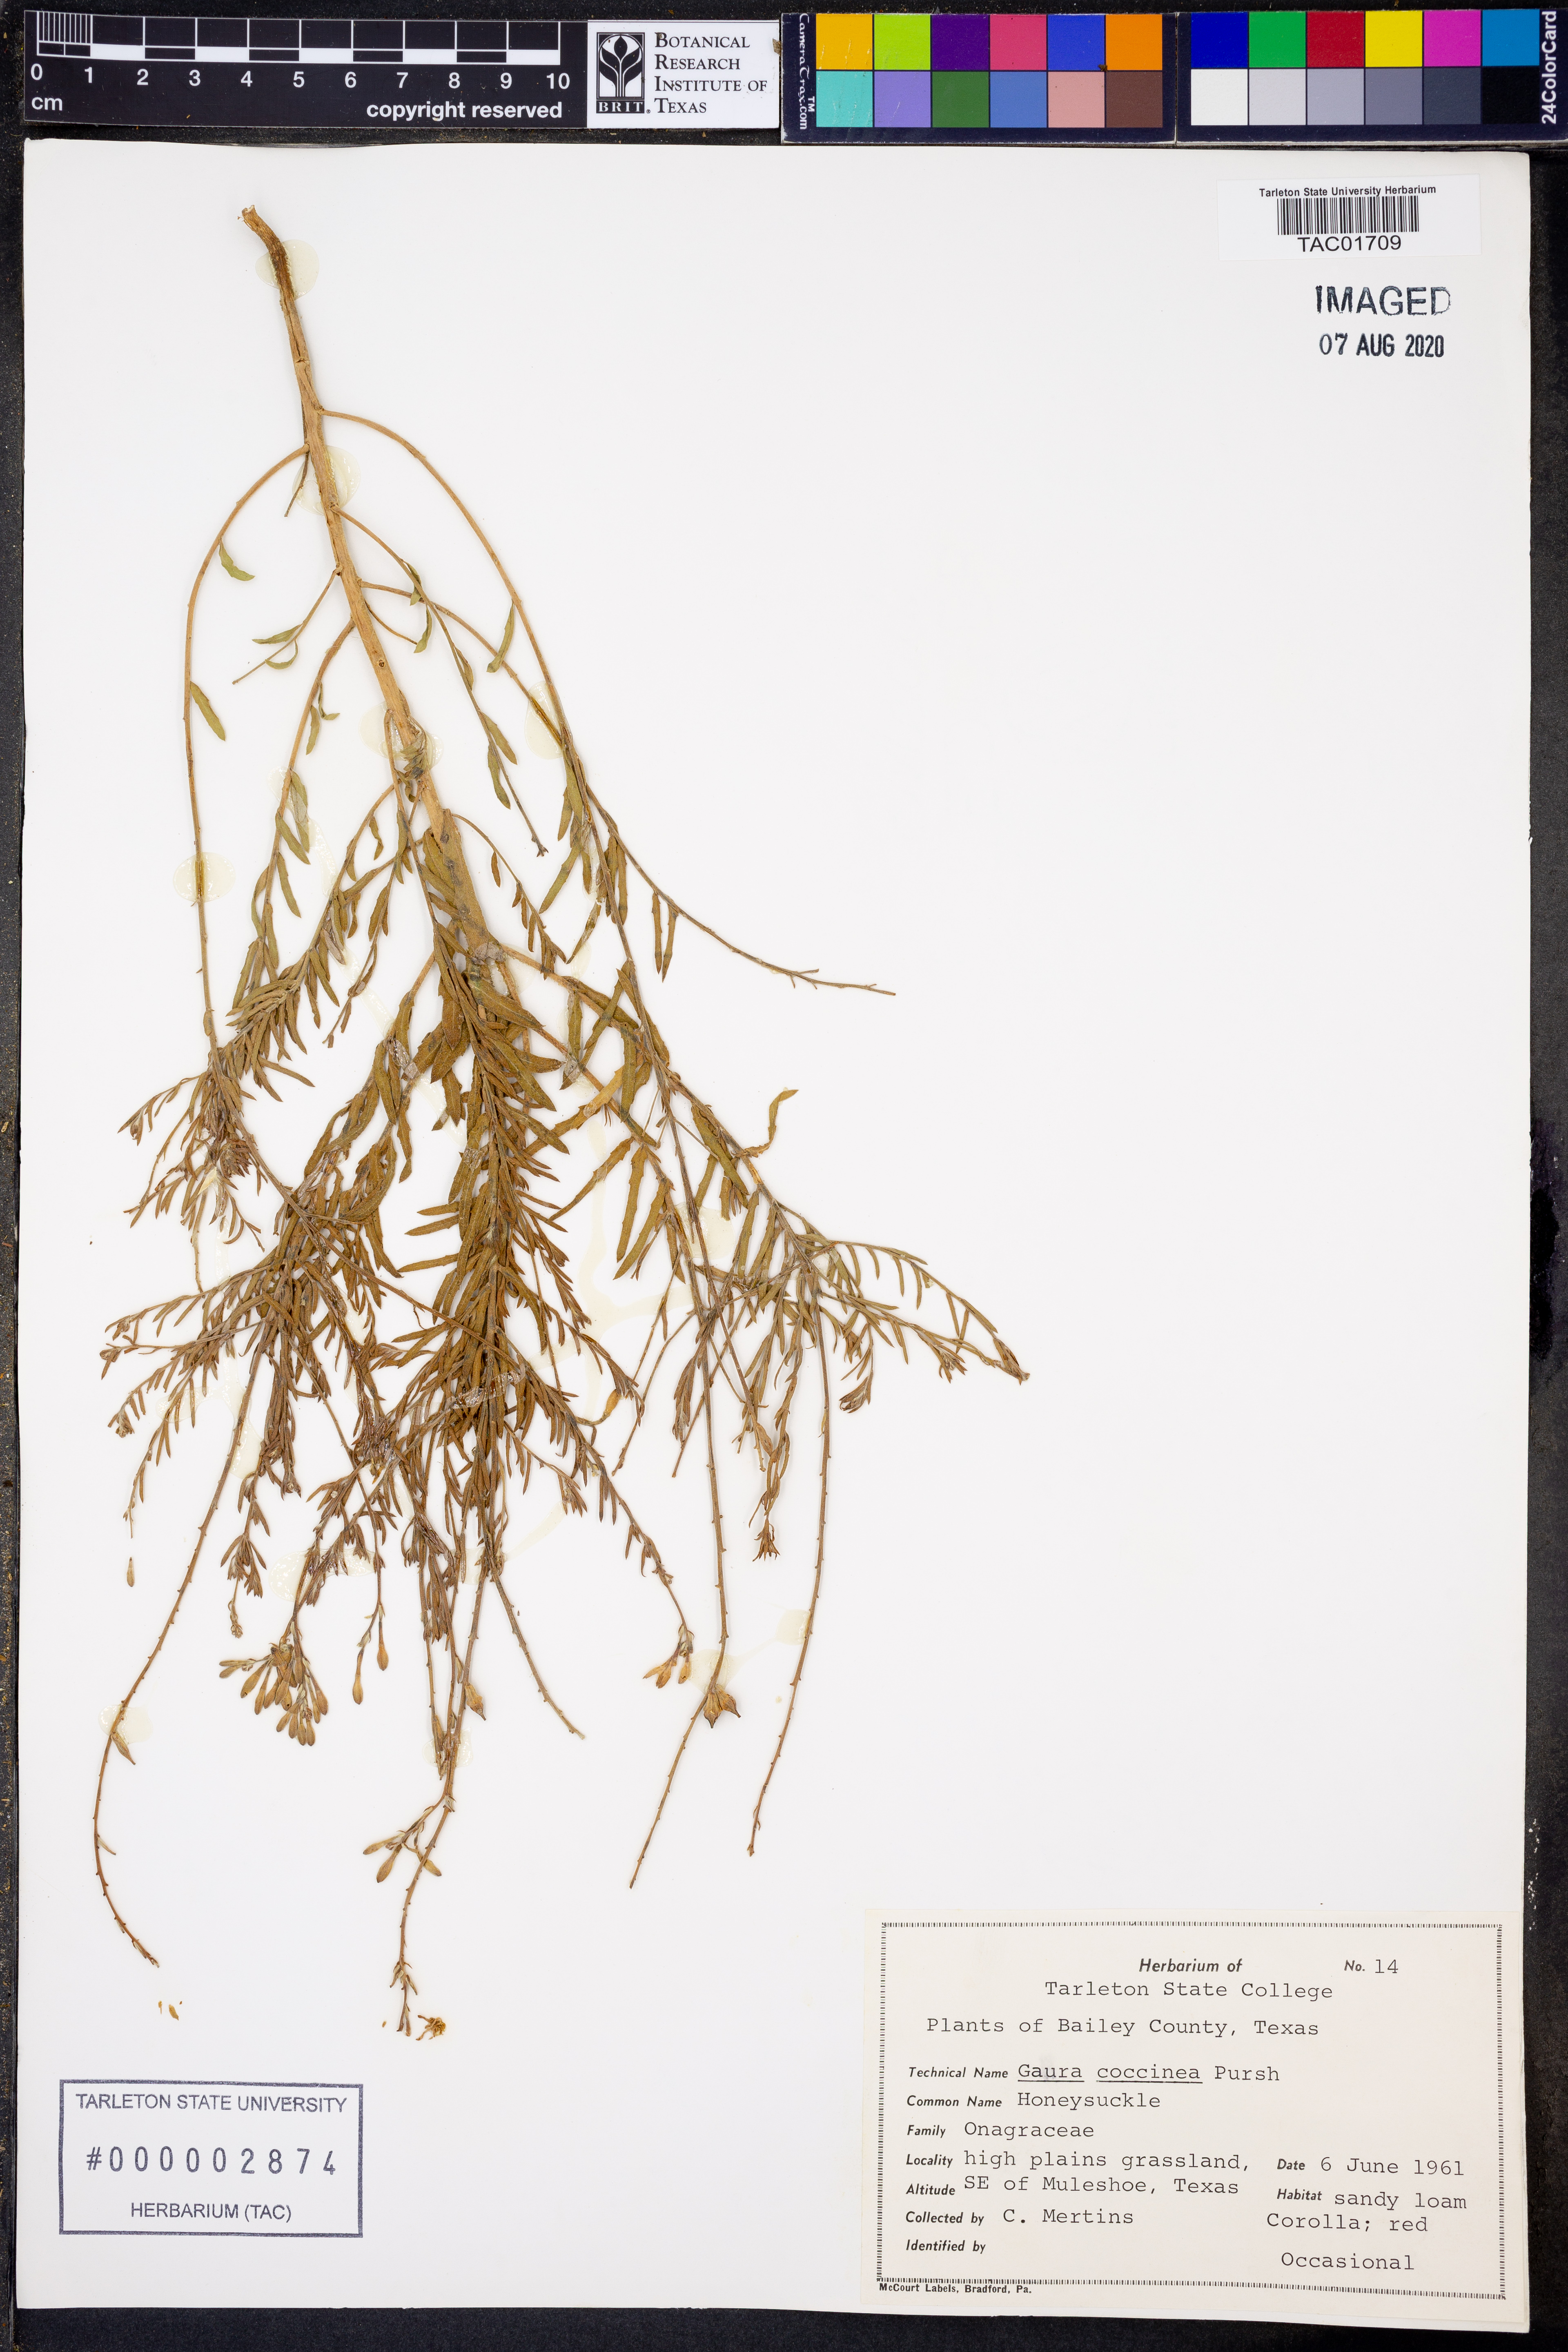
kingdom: Plantae
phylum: Tracheophyta
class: Magnoliopsida
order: Myrtales
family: Onagraceae
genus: Oenothera
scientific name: Oenothera suffrutescens
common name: Scarlet beeblossom
